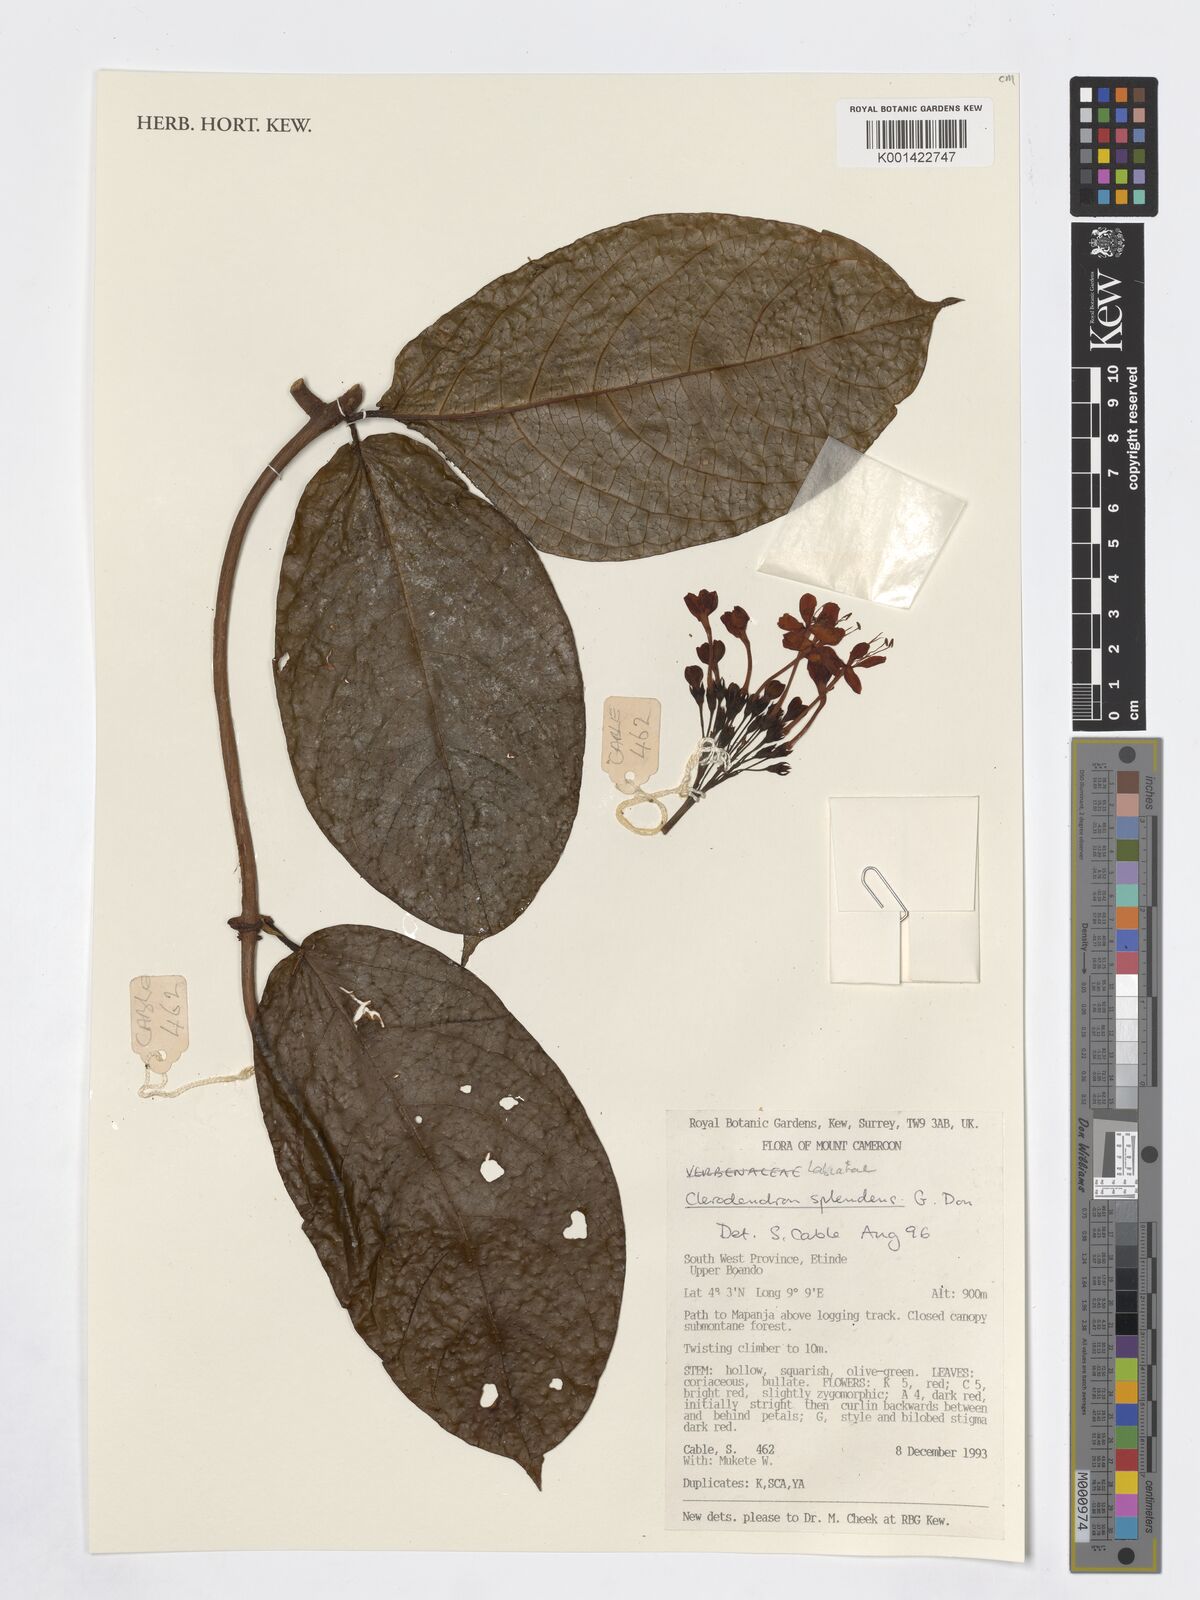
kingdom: Plantae
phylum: Tracheophyta
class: Magnoliopsida
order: Lamiales
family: Lamiaceae
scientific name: Lamiaceae
